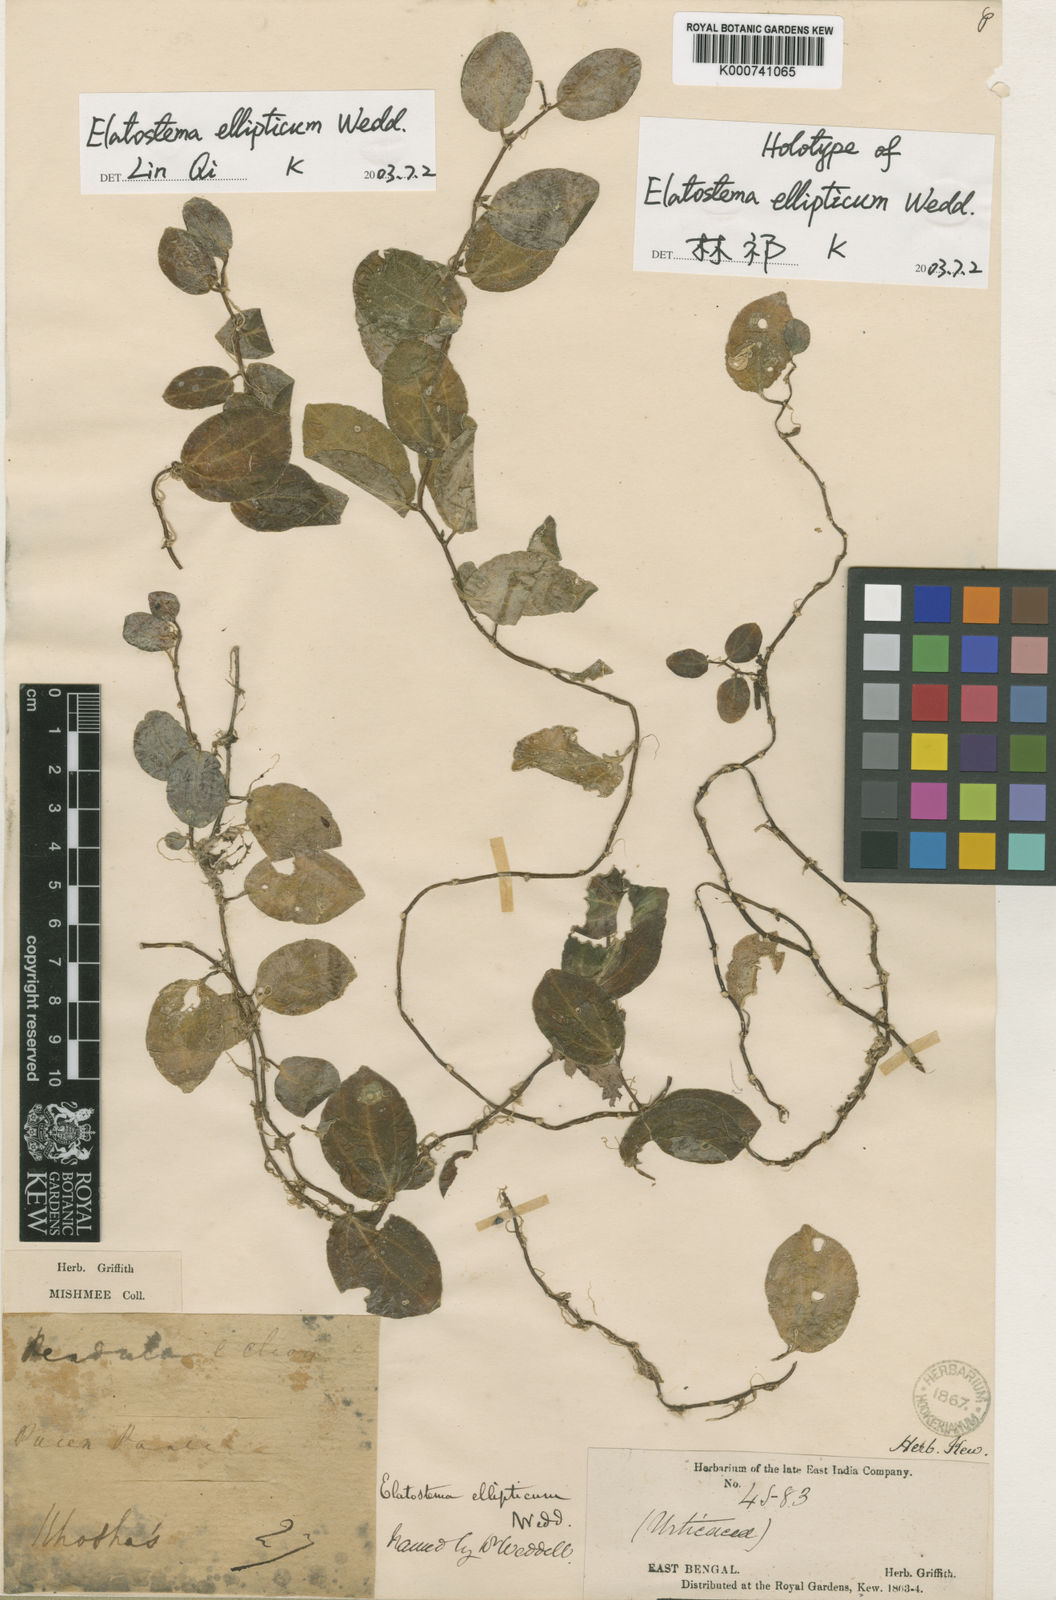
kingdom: Plantae
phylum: Tracheophyta
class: Magnoliopsida
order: Rosales
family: Urticaceae
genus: Elatostema
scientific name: Elatostema ellipticum
